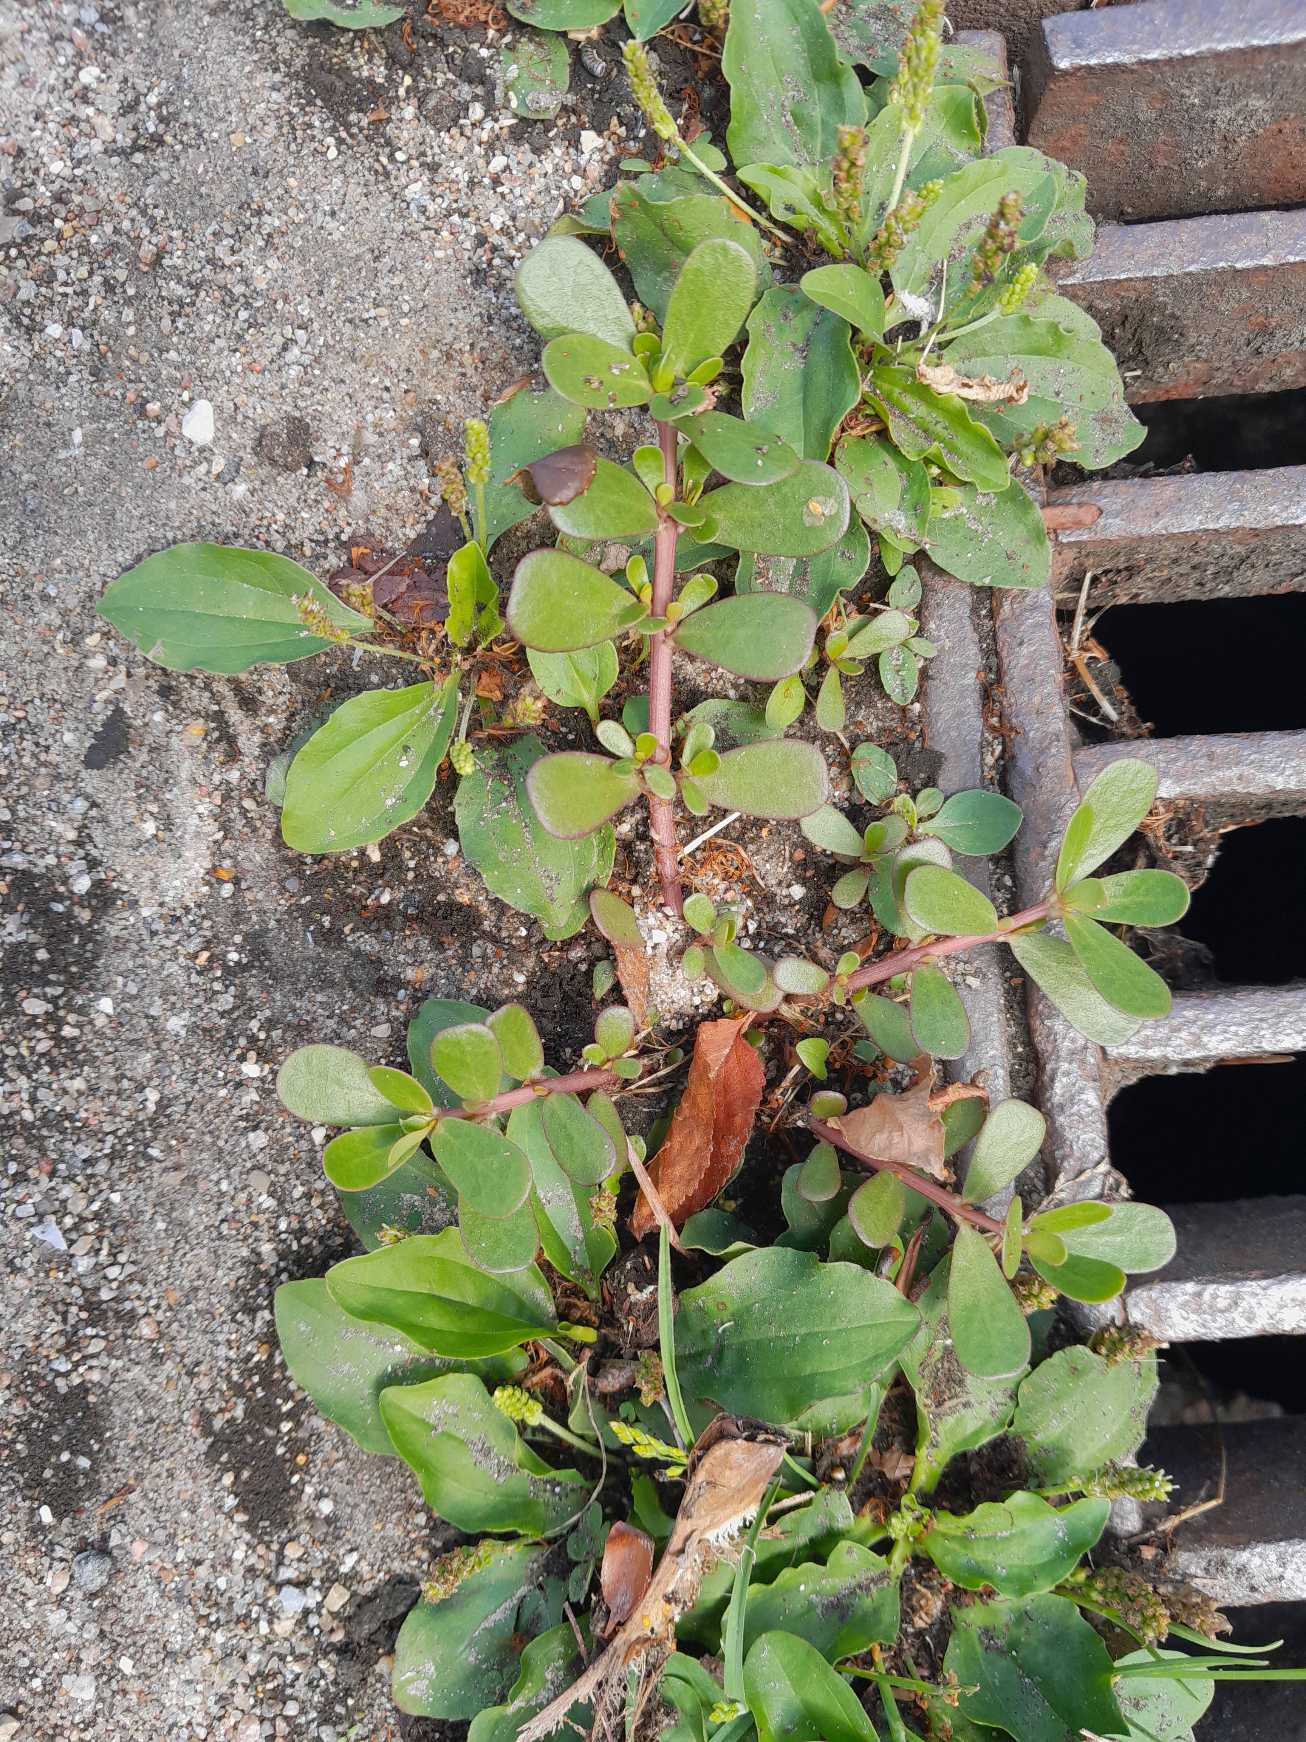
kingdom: Plantae
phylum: Tracheophyta
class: Magnoliopsida
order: Caryophyllales
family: Portulacaceae
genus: Portulaca
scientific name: Portulaca oleracea
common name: Portulak
